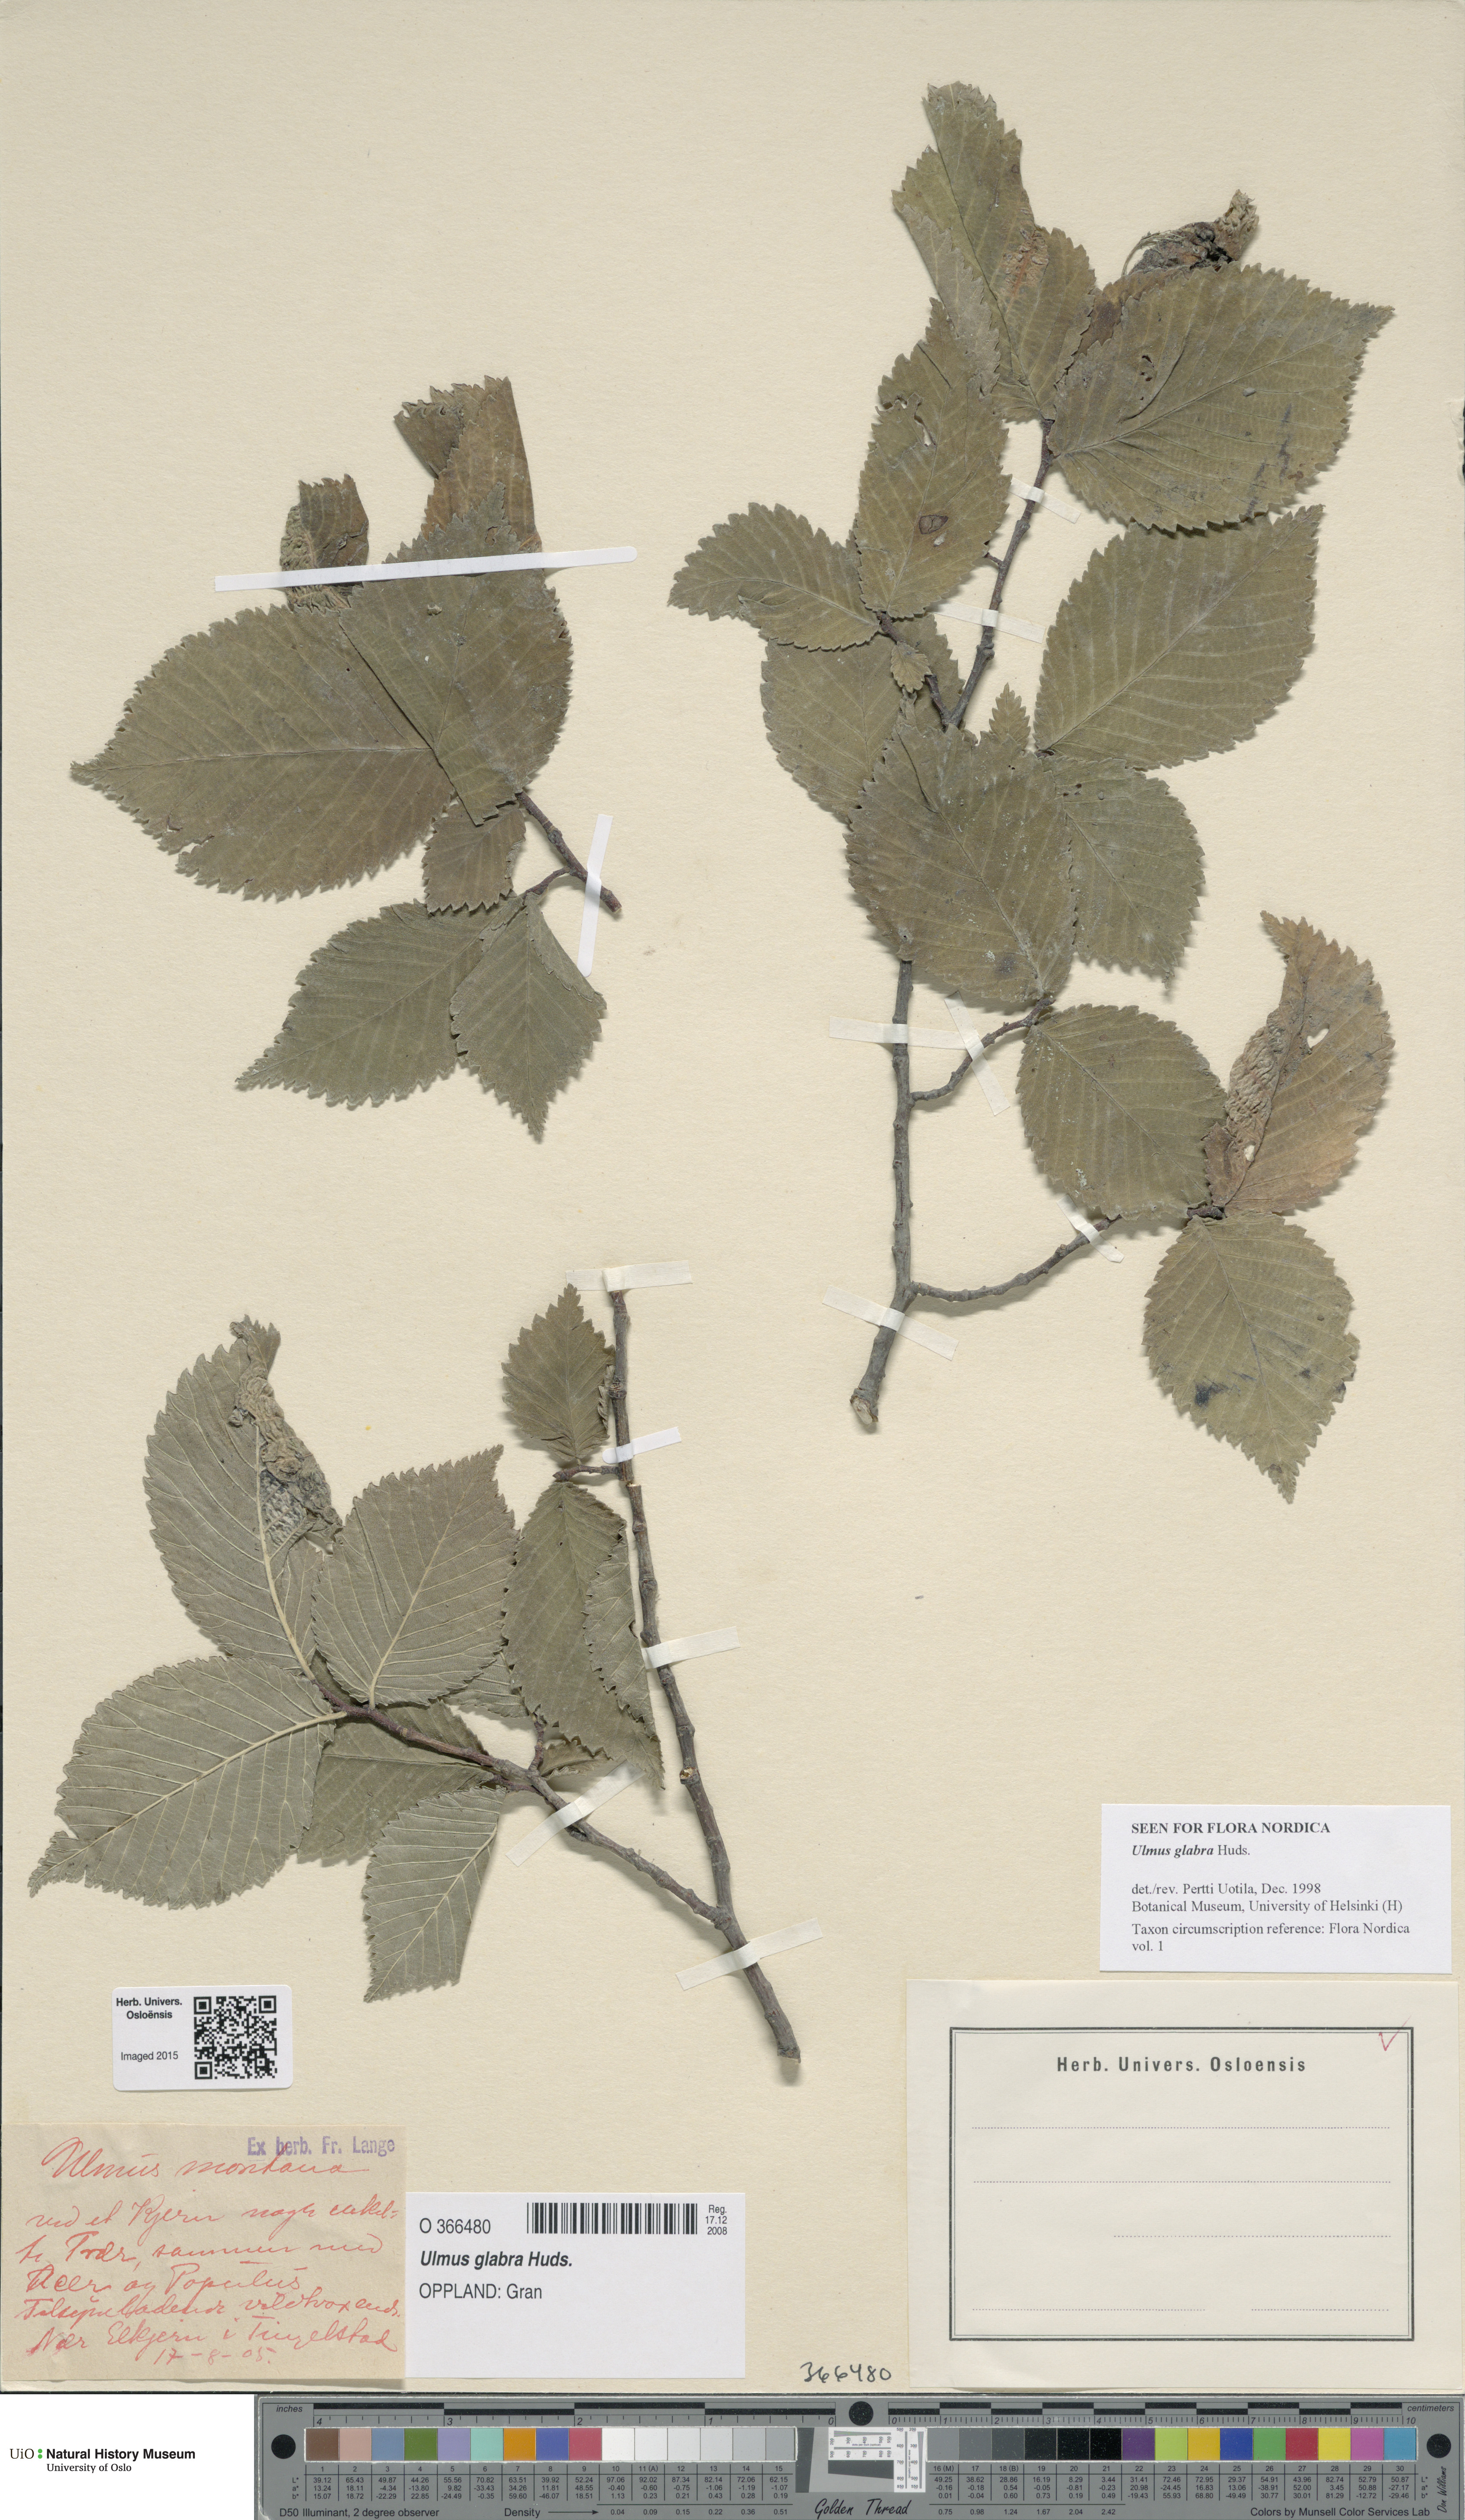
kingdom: Plantae
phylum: Tracheophyta
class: Magnoliopsida
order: Rosales
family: Ulmaceae
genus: Ulmus
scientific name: Ulmus glabra
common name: Wych elm
